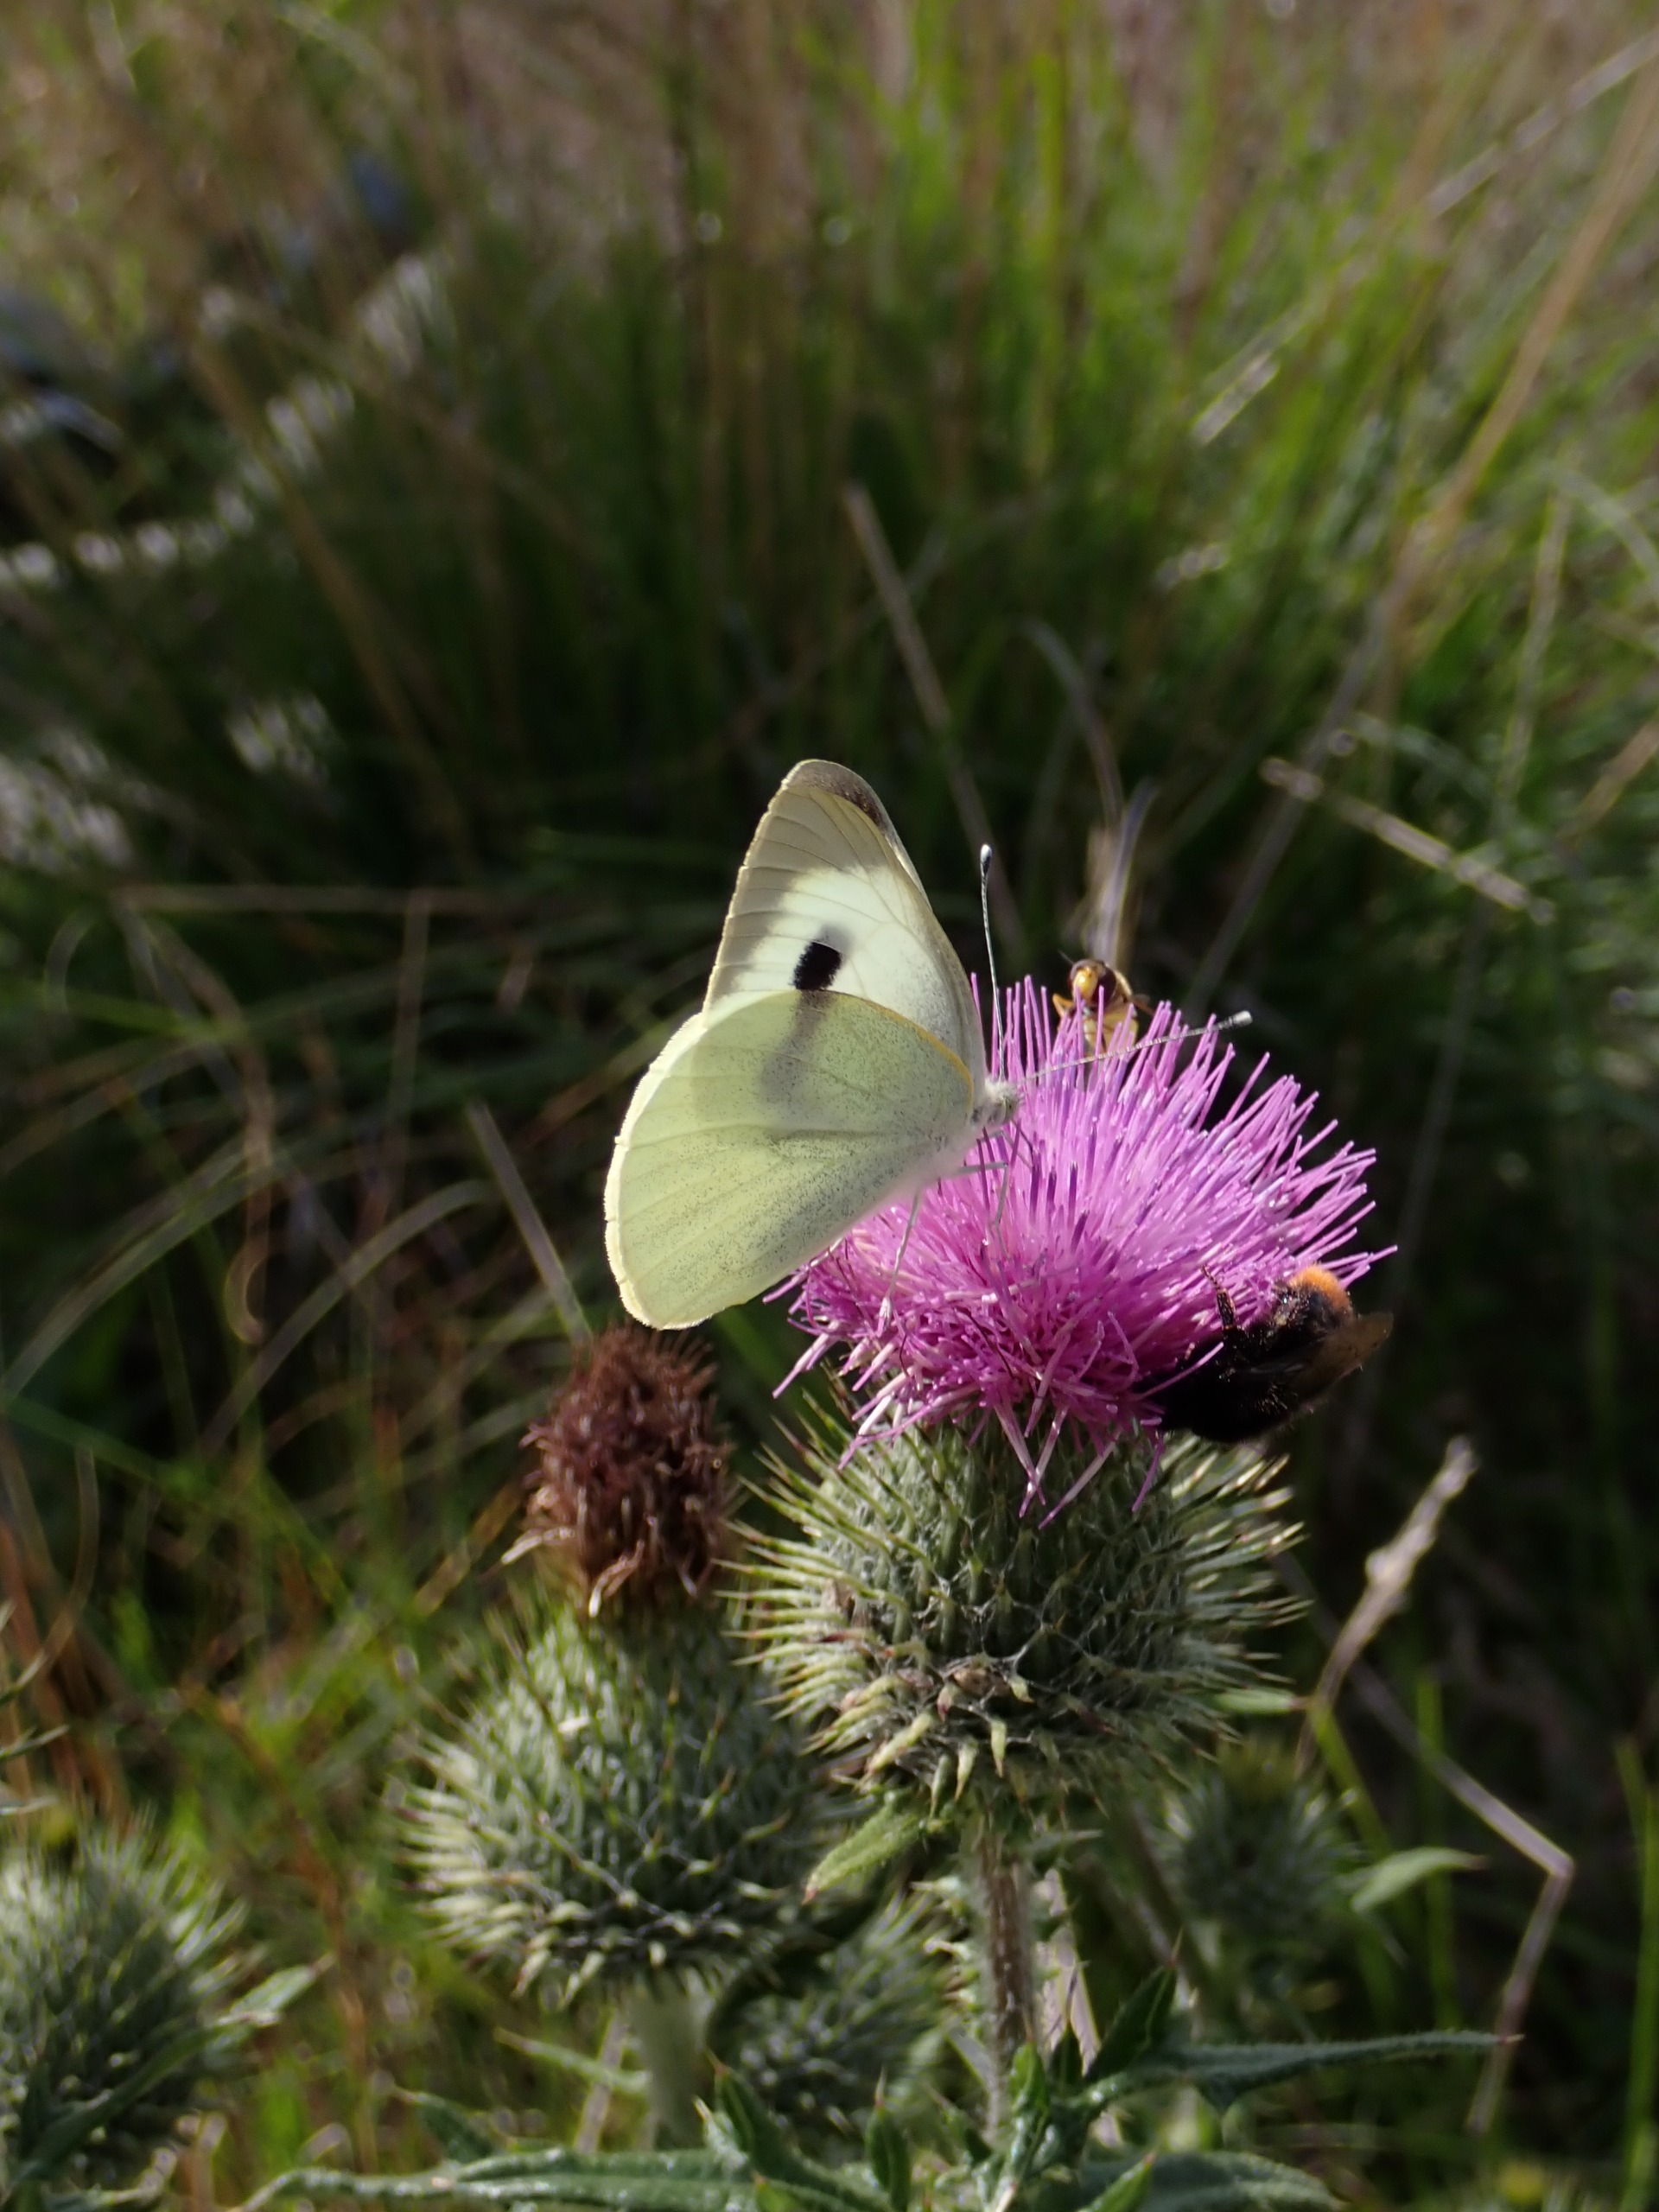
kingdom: Animalia
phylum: Arthropoda
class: Insecta
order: Lepidoptera
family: Pieridae
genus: Pieris
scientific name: Pieris brassicae
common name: Stor kålsommerfugl
